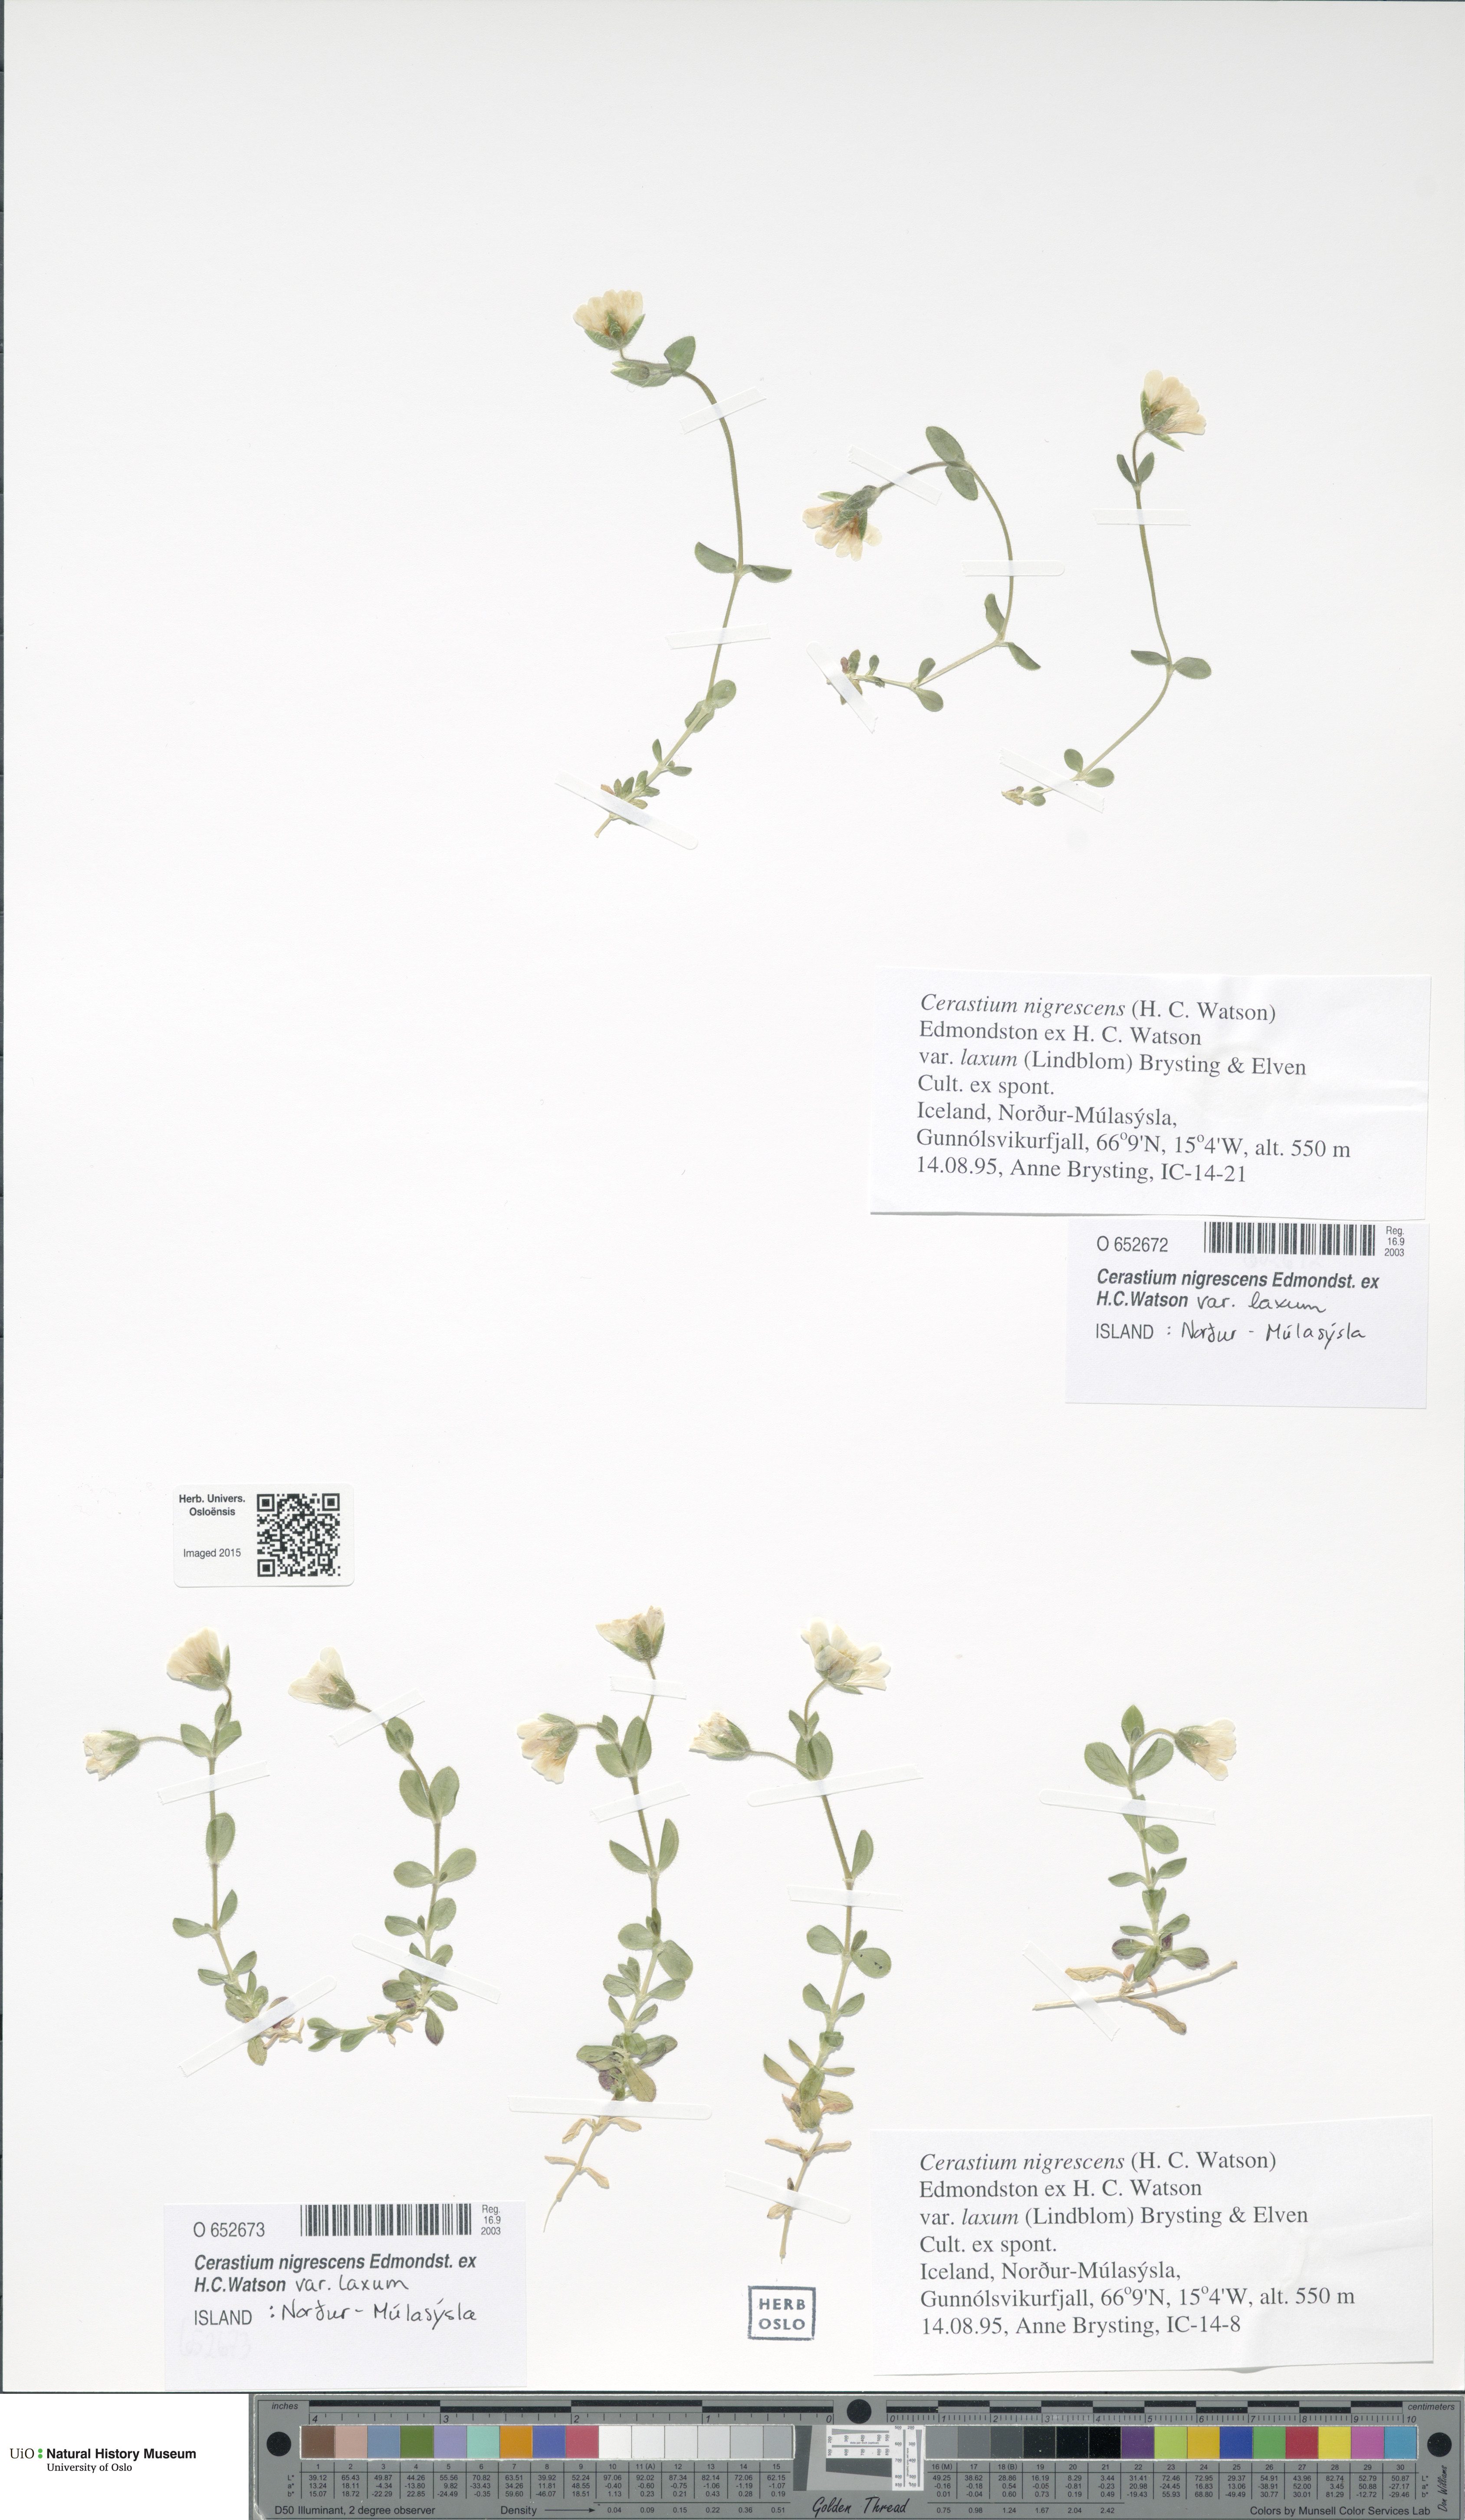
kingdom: Plantae
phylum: Tracheophyta
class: Magnoliopsida
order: Caryophyllales
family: Caryophyllaceae
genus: Cerastium
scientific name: Cerastium nigrescens
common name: Shetland mouse-ear
